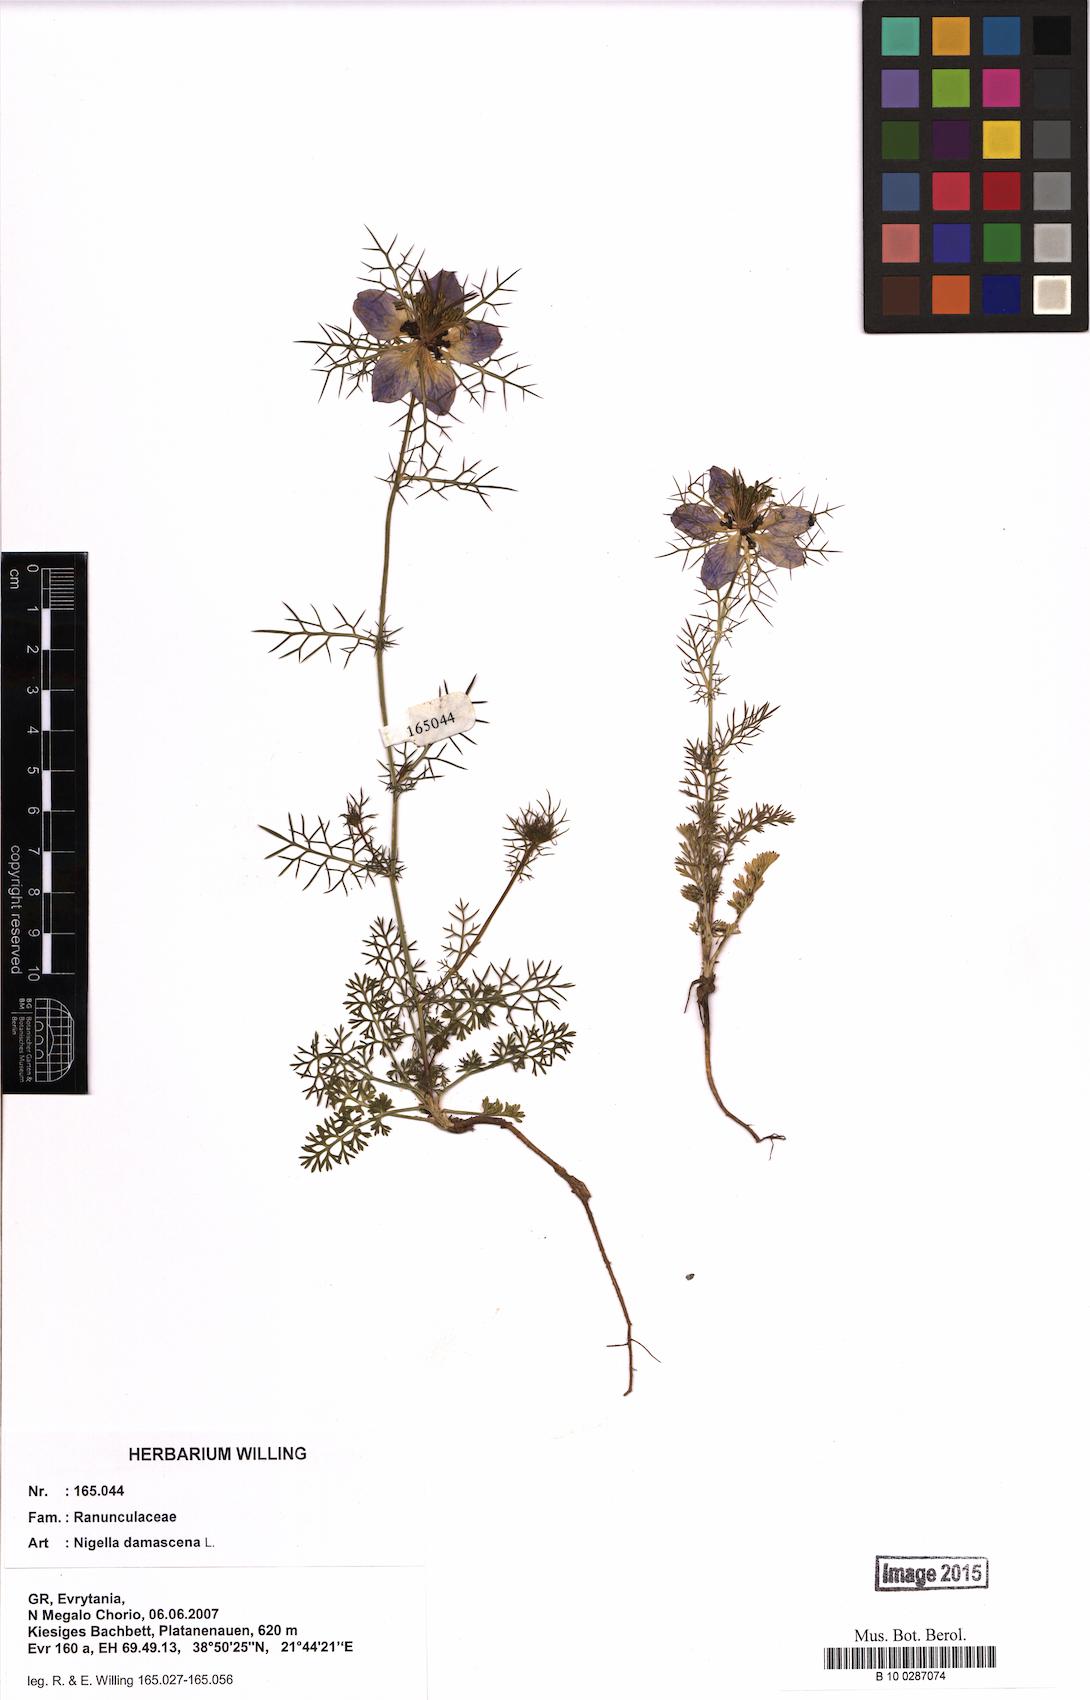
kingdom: Plantae
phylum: Tracheophyta
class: Magnoliopsida
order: Ranunculales
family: Ranunculaceae
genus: Nigella
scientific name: Nigella damascena
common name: Love-in-a-mist
